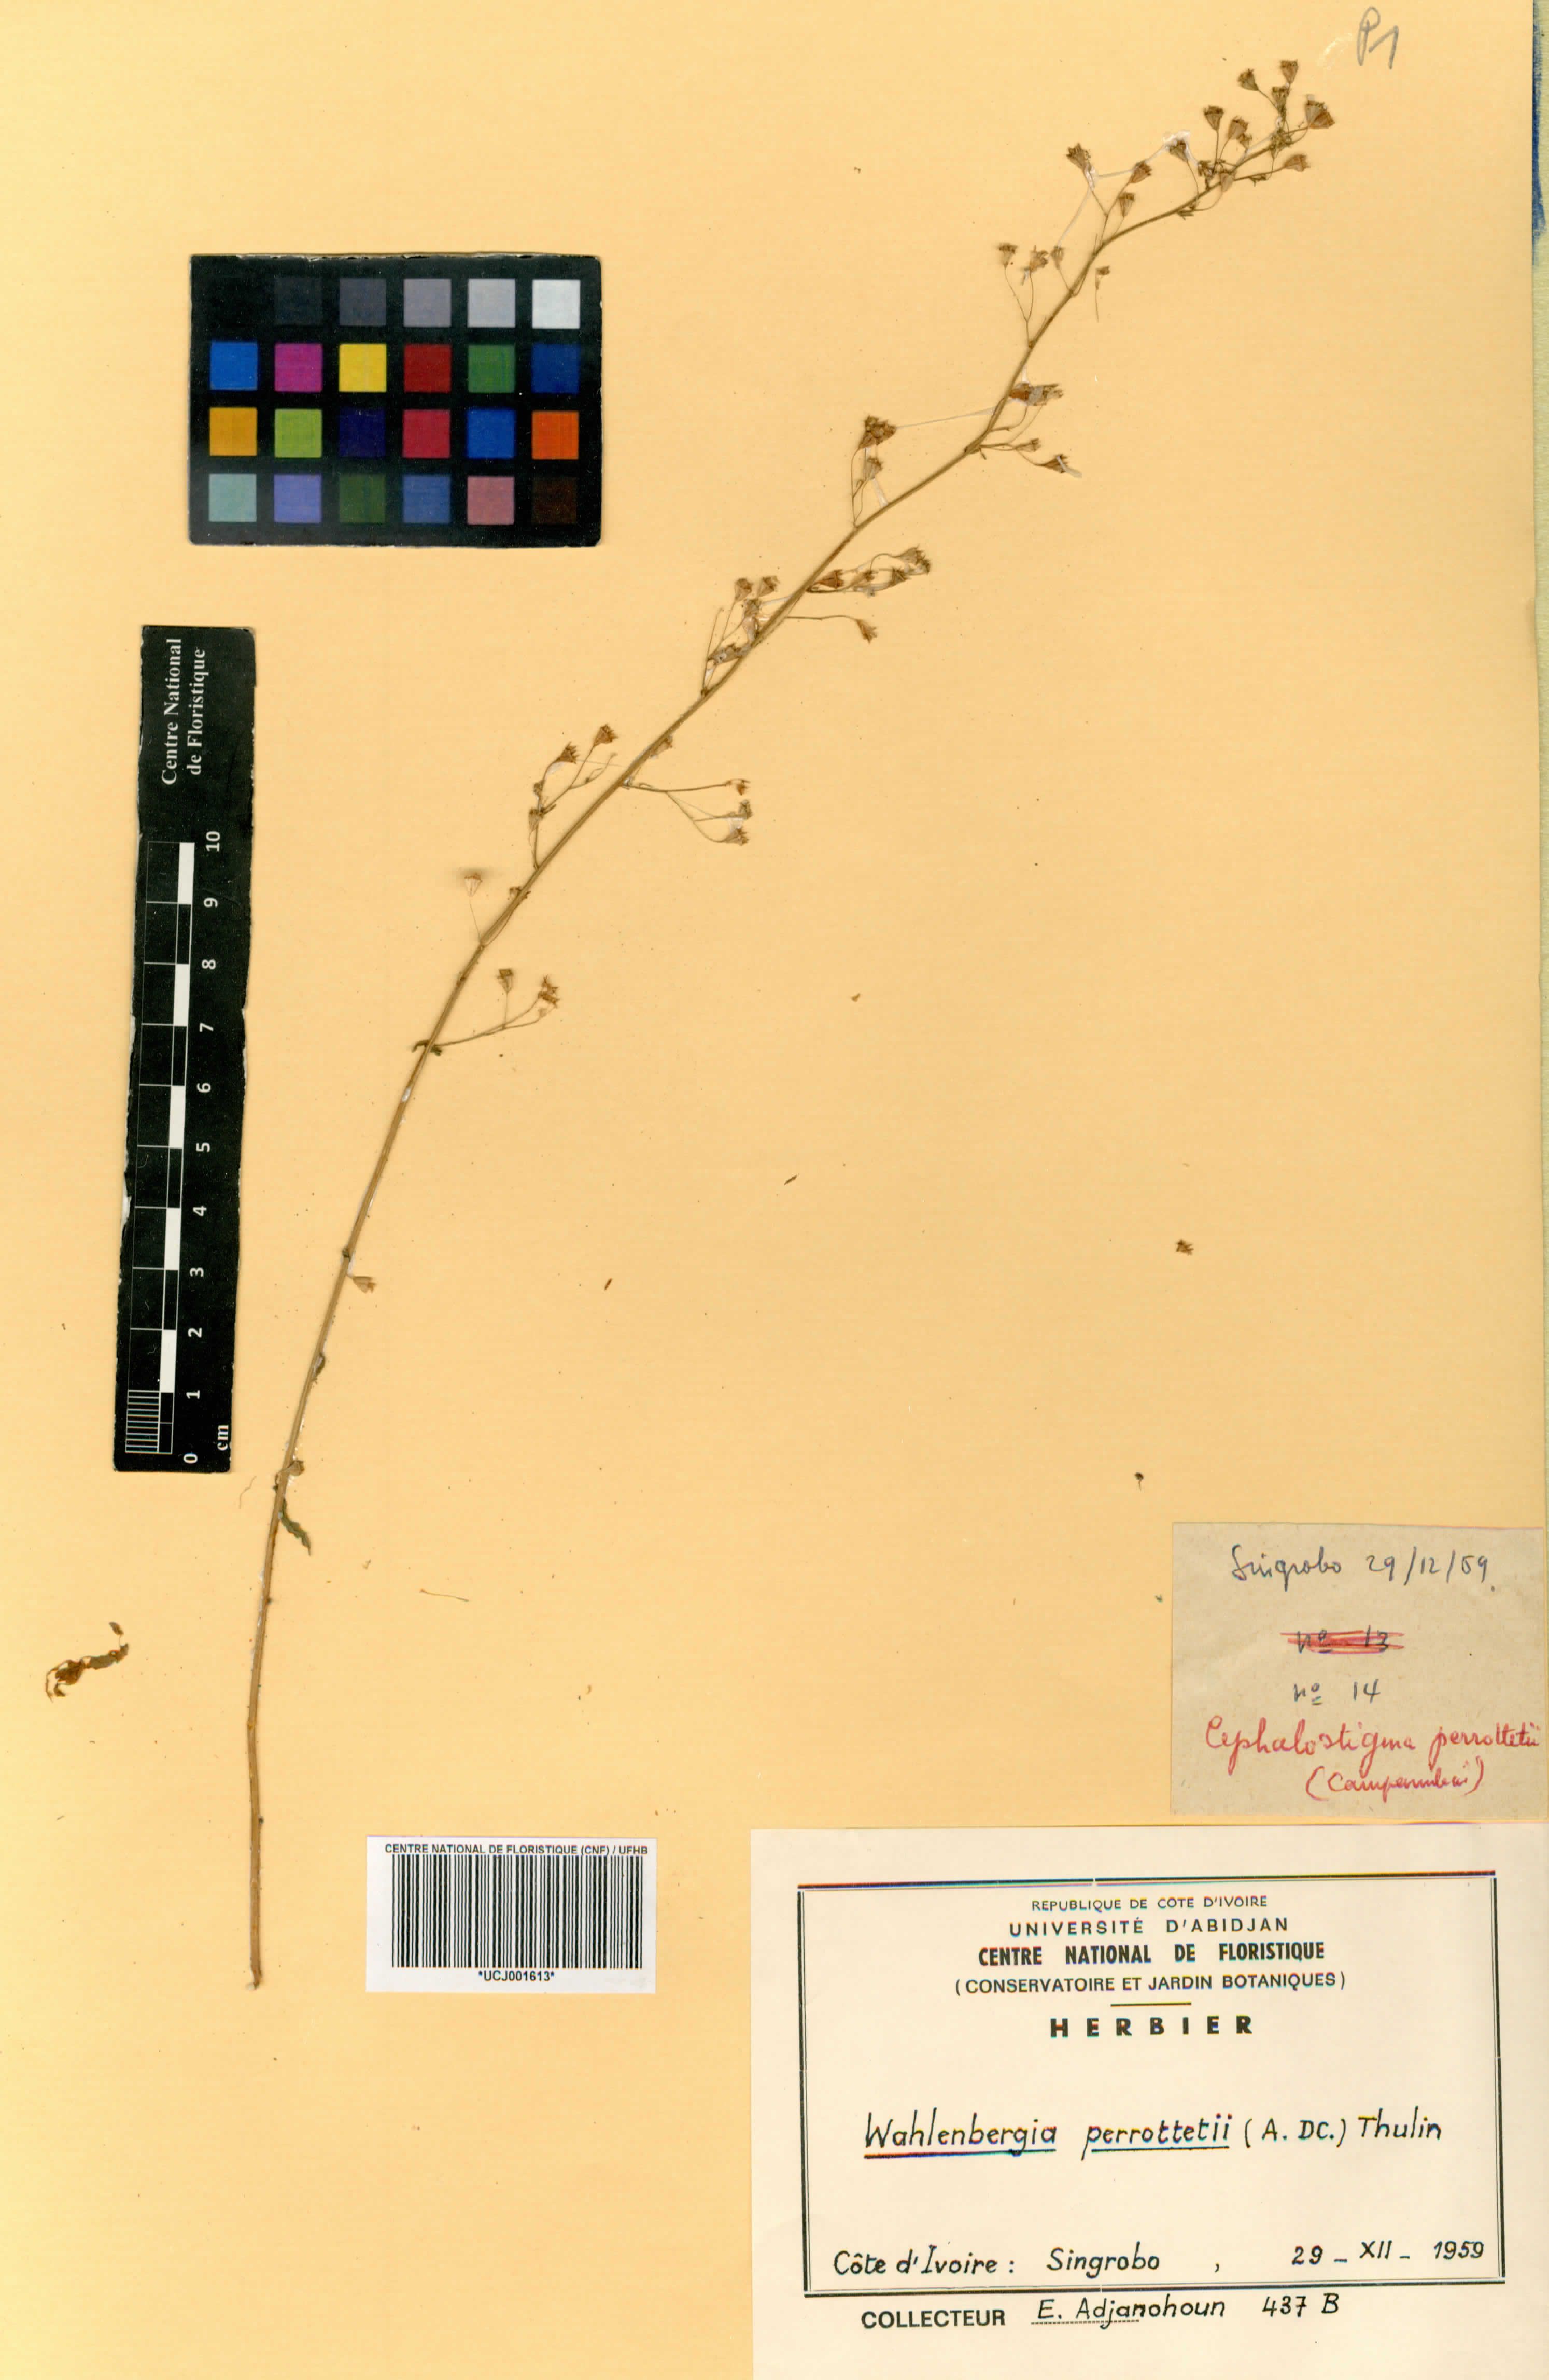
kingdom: Plantae
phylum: Tracheophyta
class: Magnoliopsida
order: Asterales
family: Campanulaceae
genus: Wahlenbergia
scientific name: Wahlenbergia perrottetii
